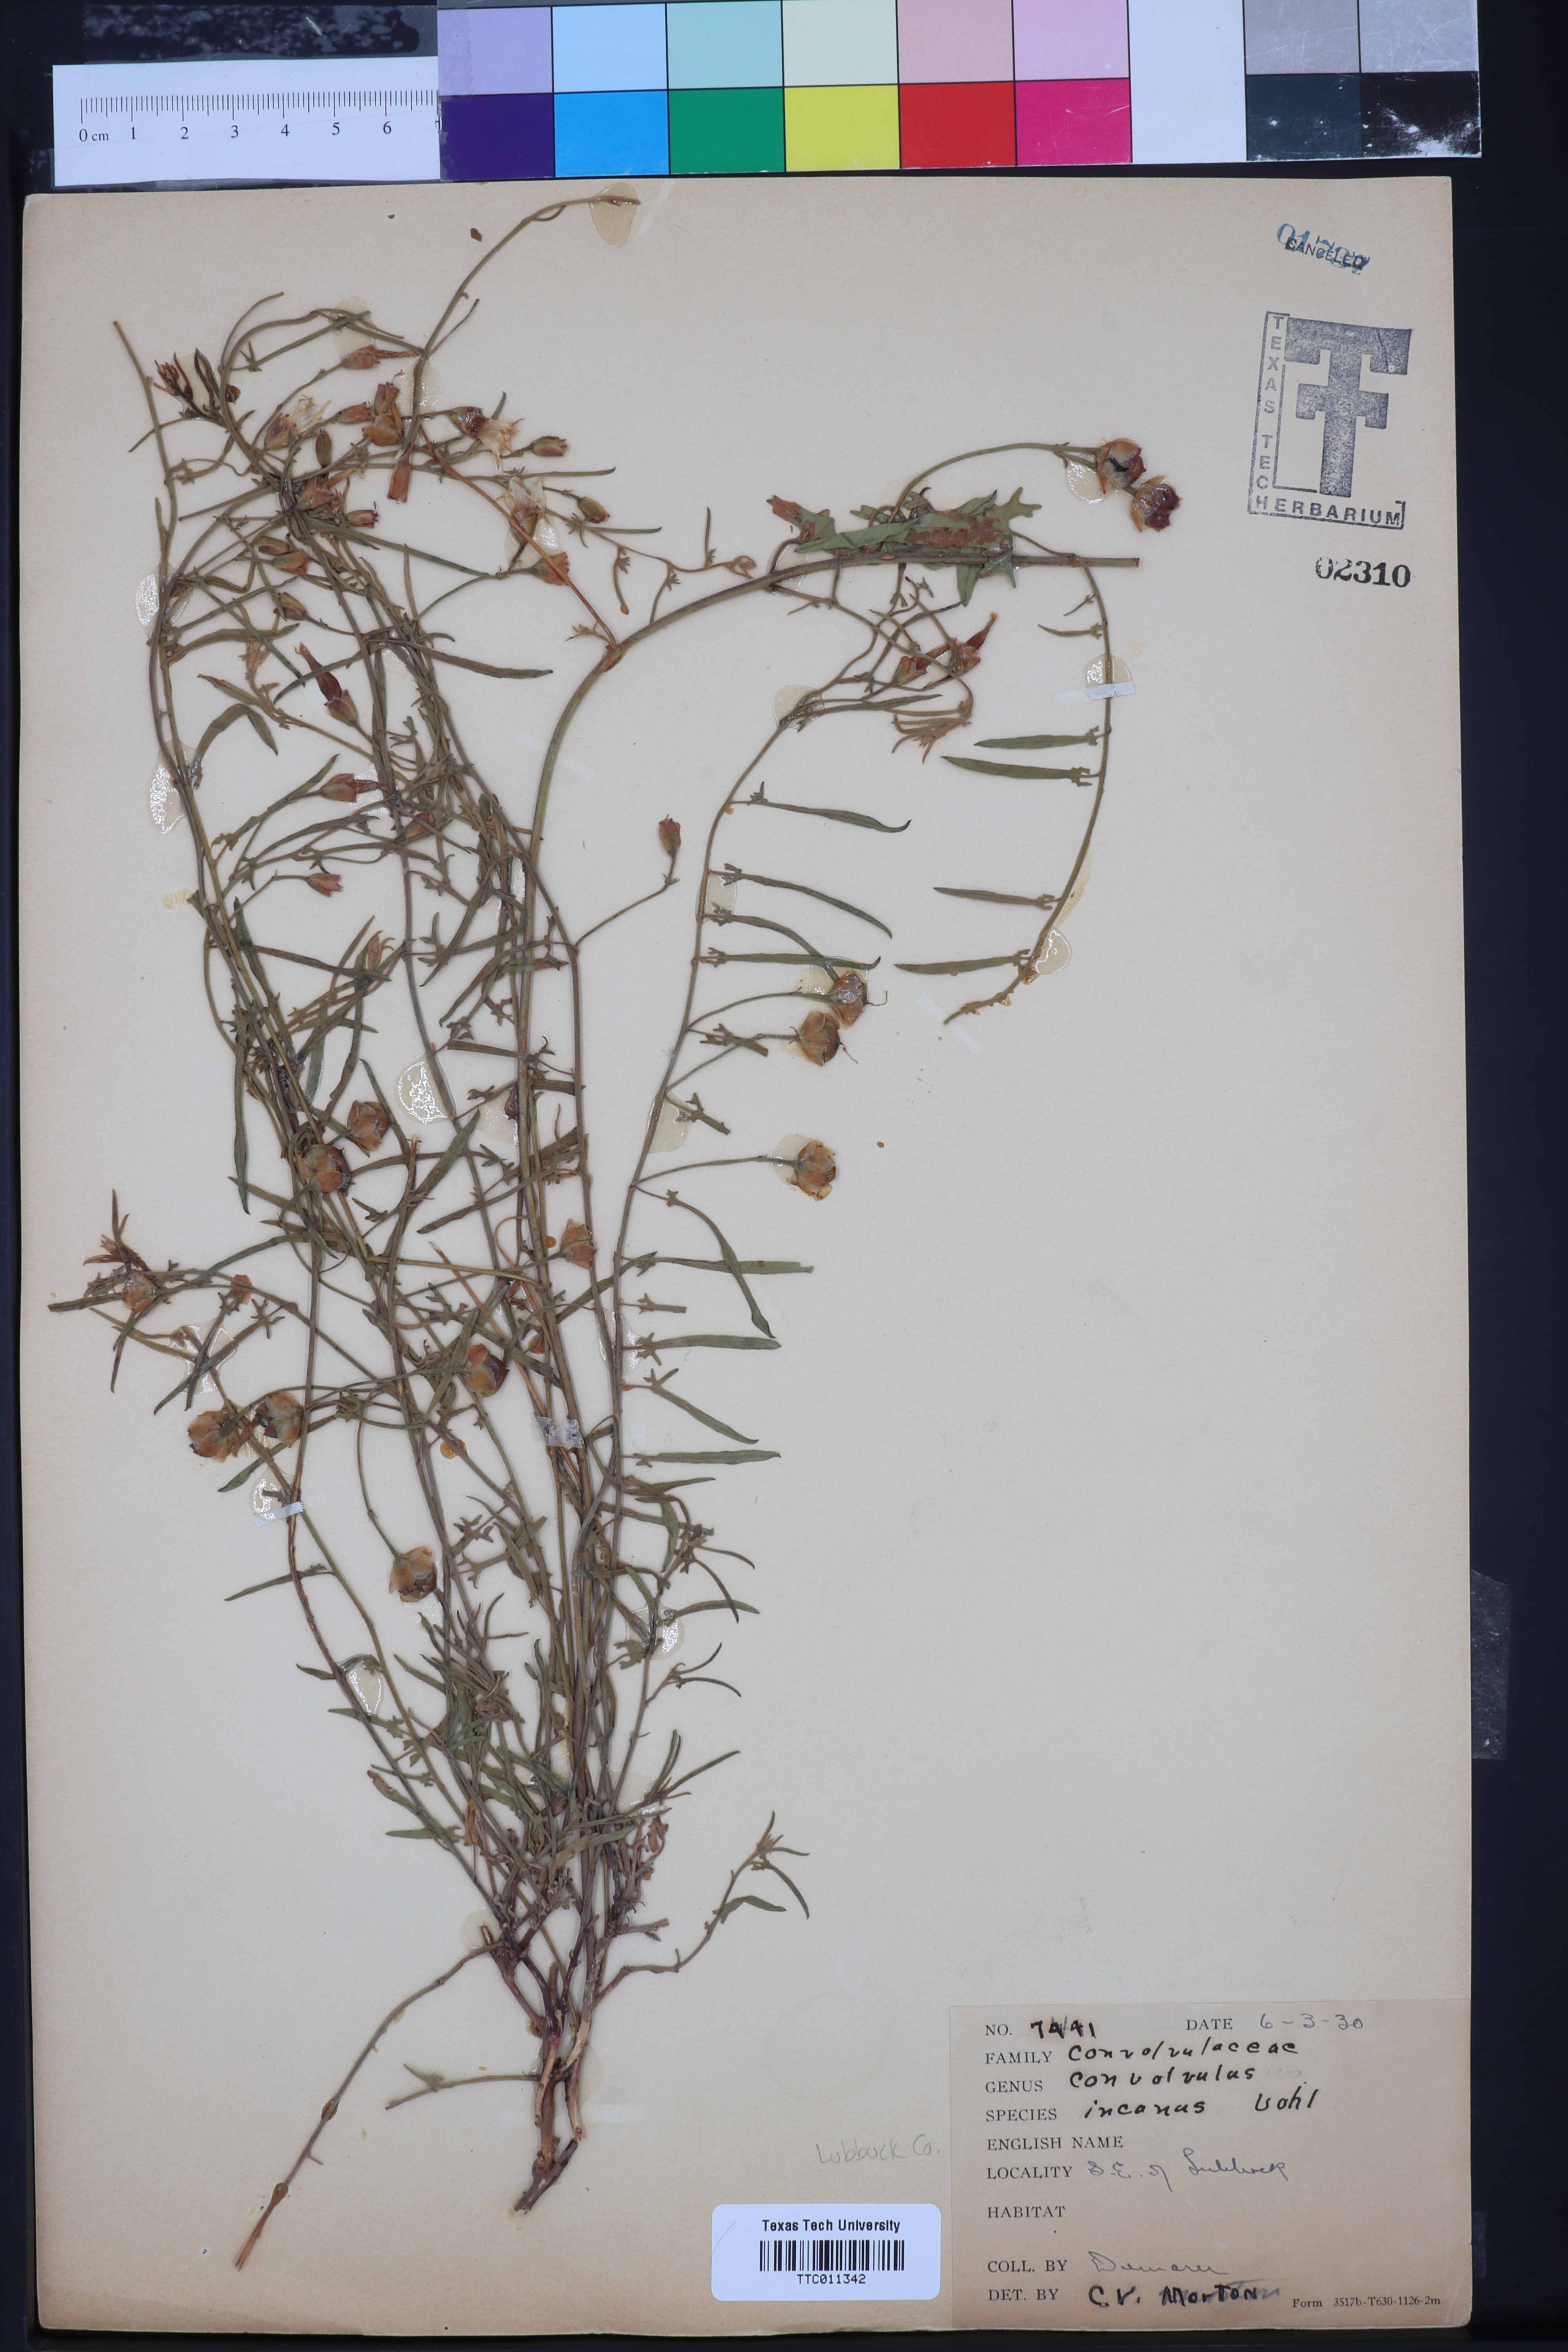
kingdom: Plantae
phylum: Tracheophyta
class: Magnoliopsida
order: Solanales
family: Convolvulaceae
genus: Convolvulus
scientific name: Convolvulus hermanniae
